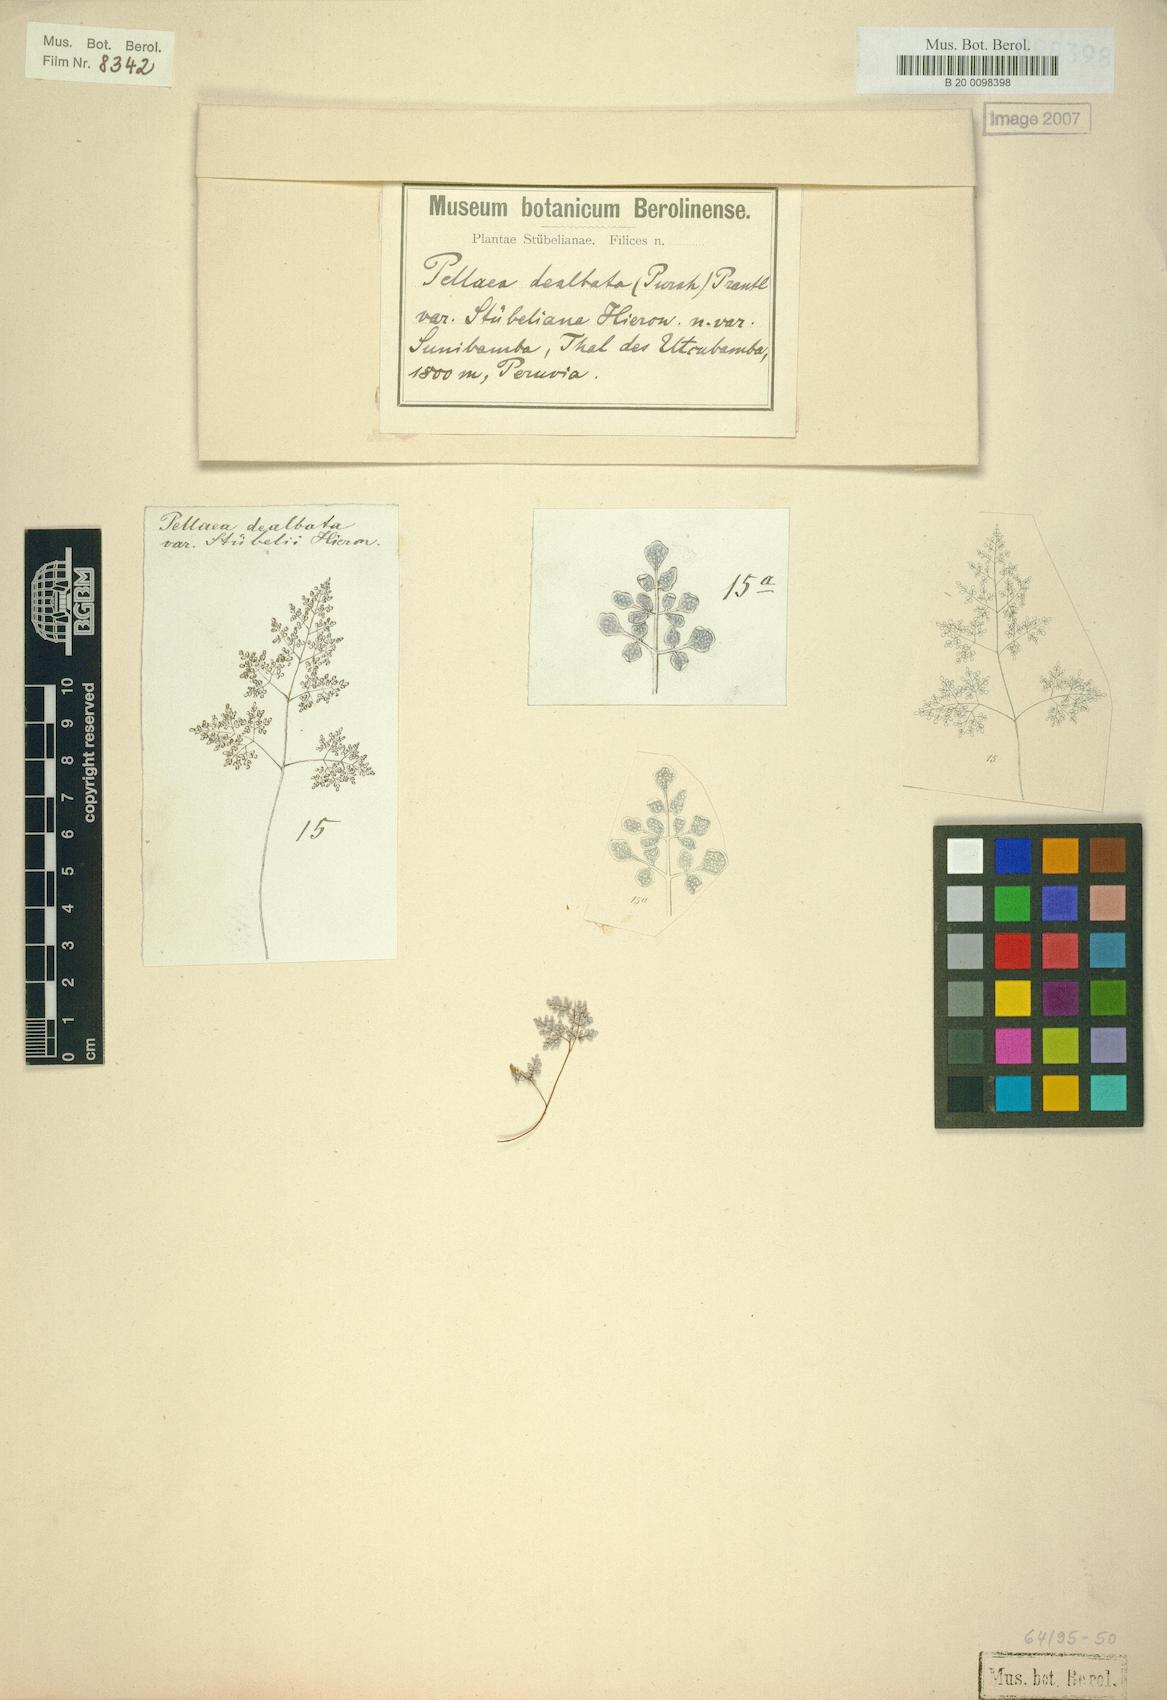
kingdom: Plantae
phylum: Tracheophyta
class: Polypodiopsida
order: Polypodiales
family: Pteridaceae
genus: Argyrochosma
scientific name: Argyrochosma stuebeliana
